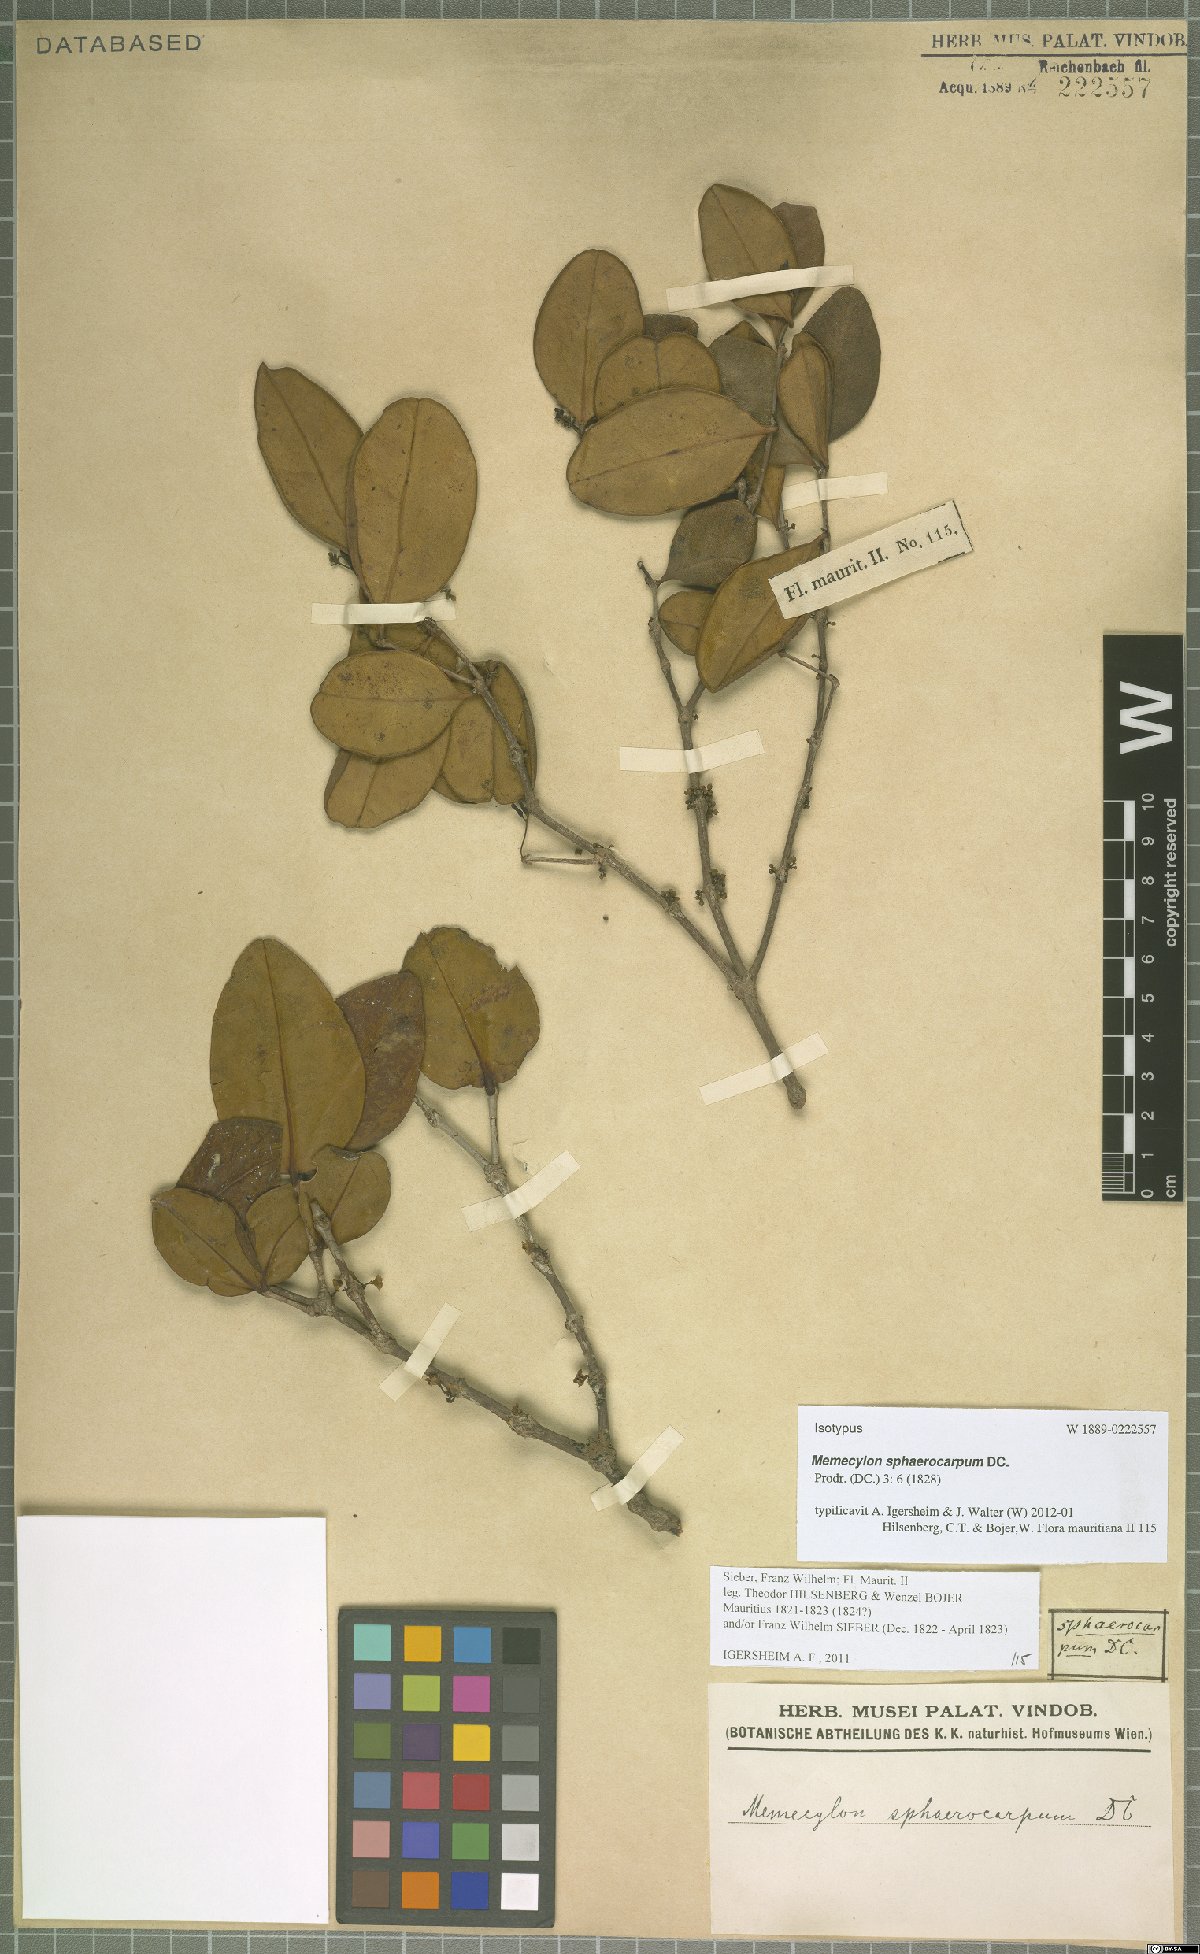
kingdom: Plantae
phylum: Tracheophyta
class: Magnoliopsida
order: Myrtales
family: Melastomataceae
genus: Memecylon
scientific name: Memecylon ovatifolium
